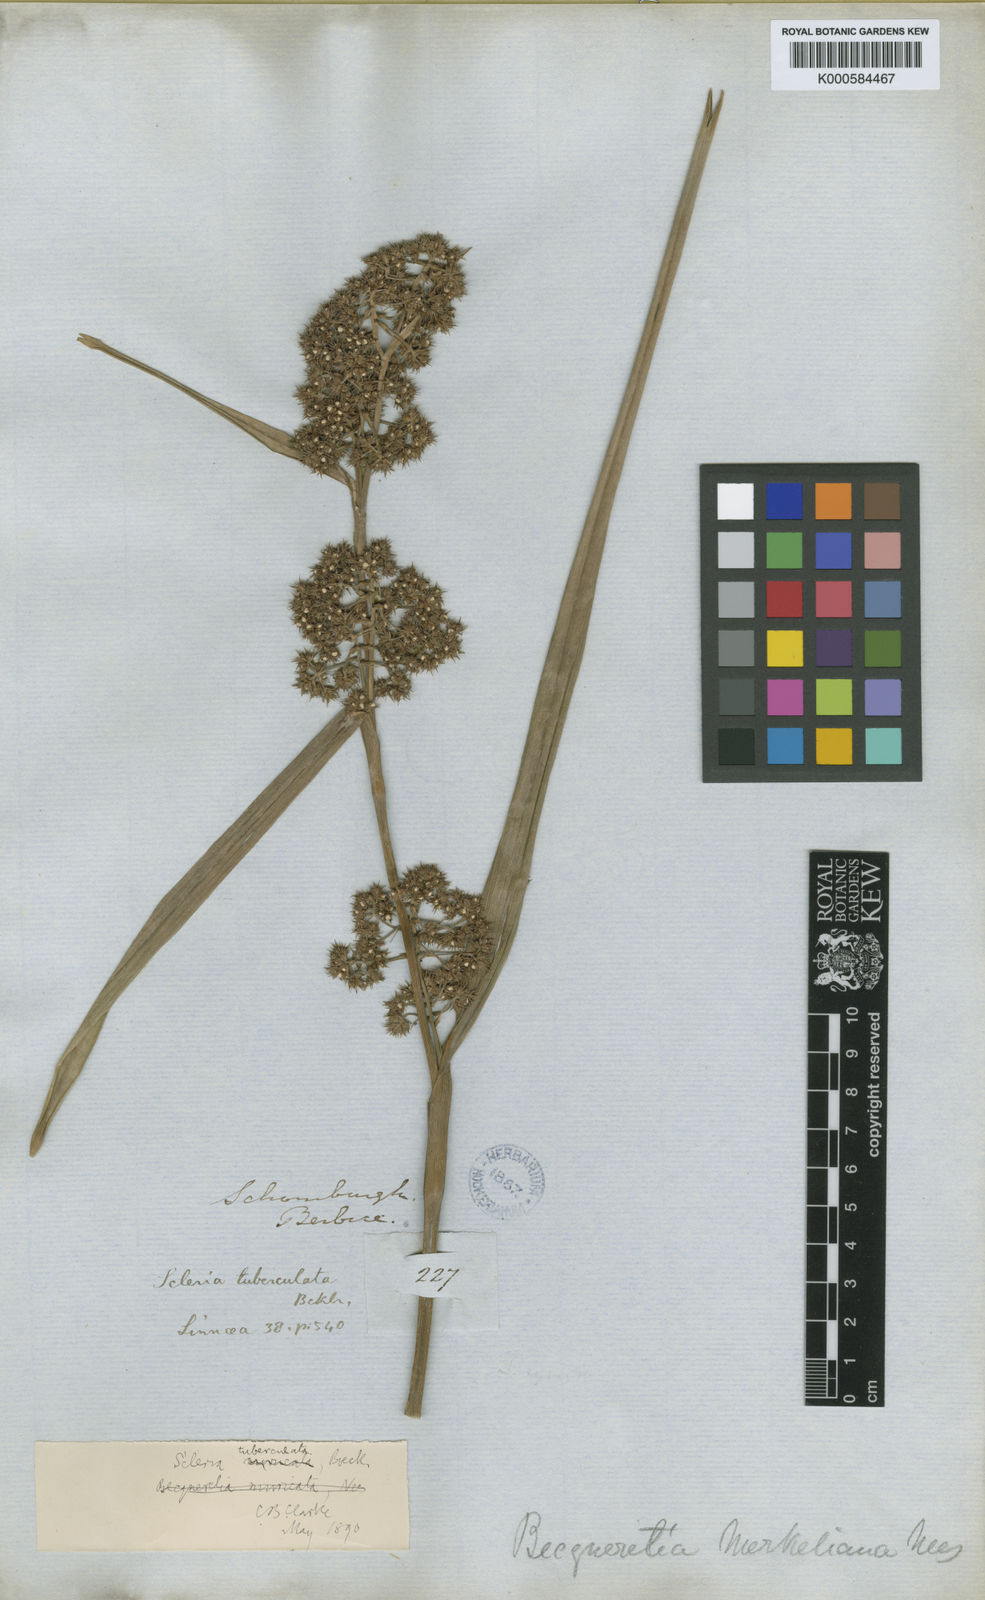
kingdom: Plantae
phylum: Tracheophyta
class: Liliopsida
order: Poales
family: Cyperaceae
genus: Becquerelia
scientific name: Becquerelia tuberculata
